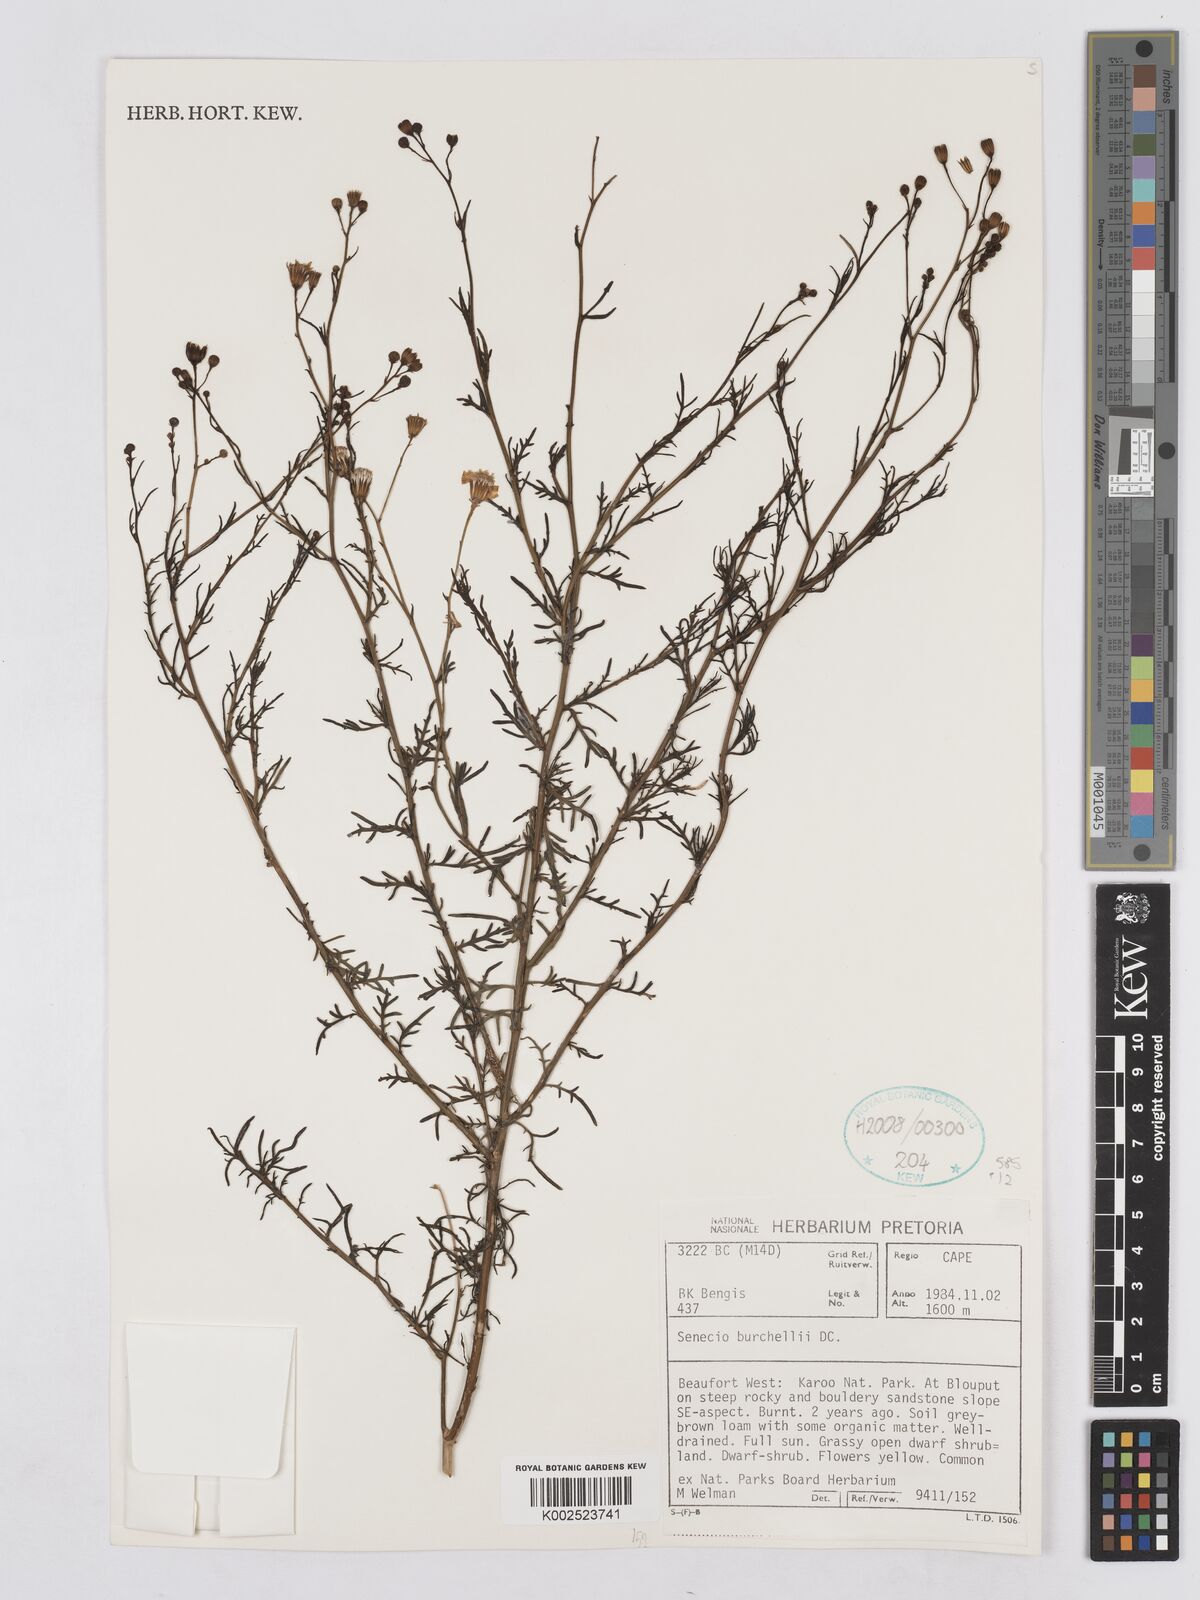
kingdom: Plantae
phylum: Tracheophyta
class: Magnoliopsida
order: Asterales
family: Asteraceae
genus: Senecio
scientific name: Senecio burchellii
